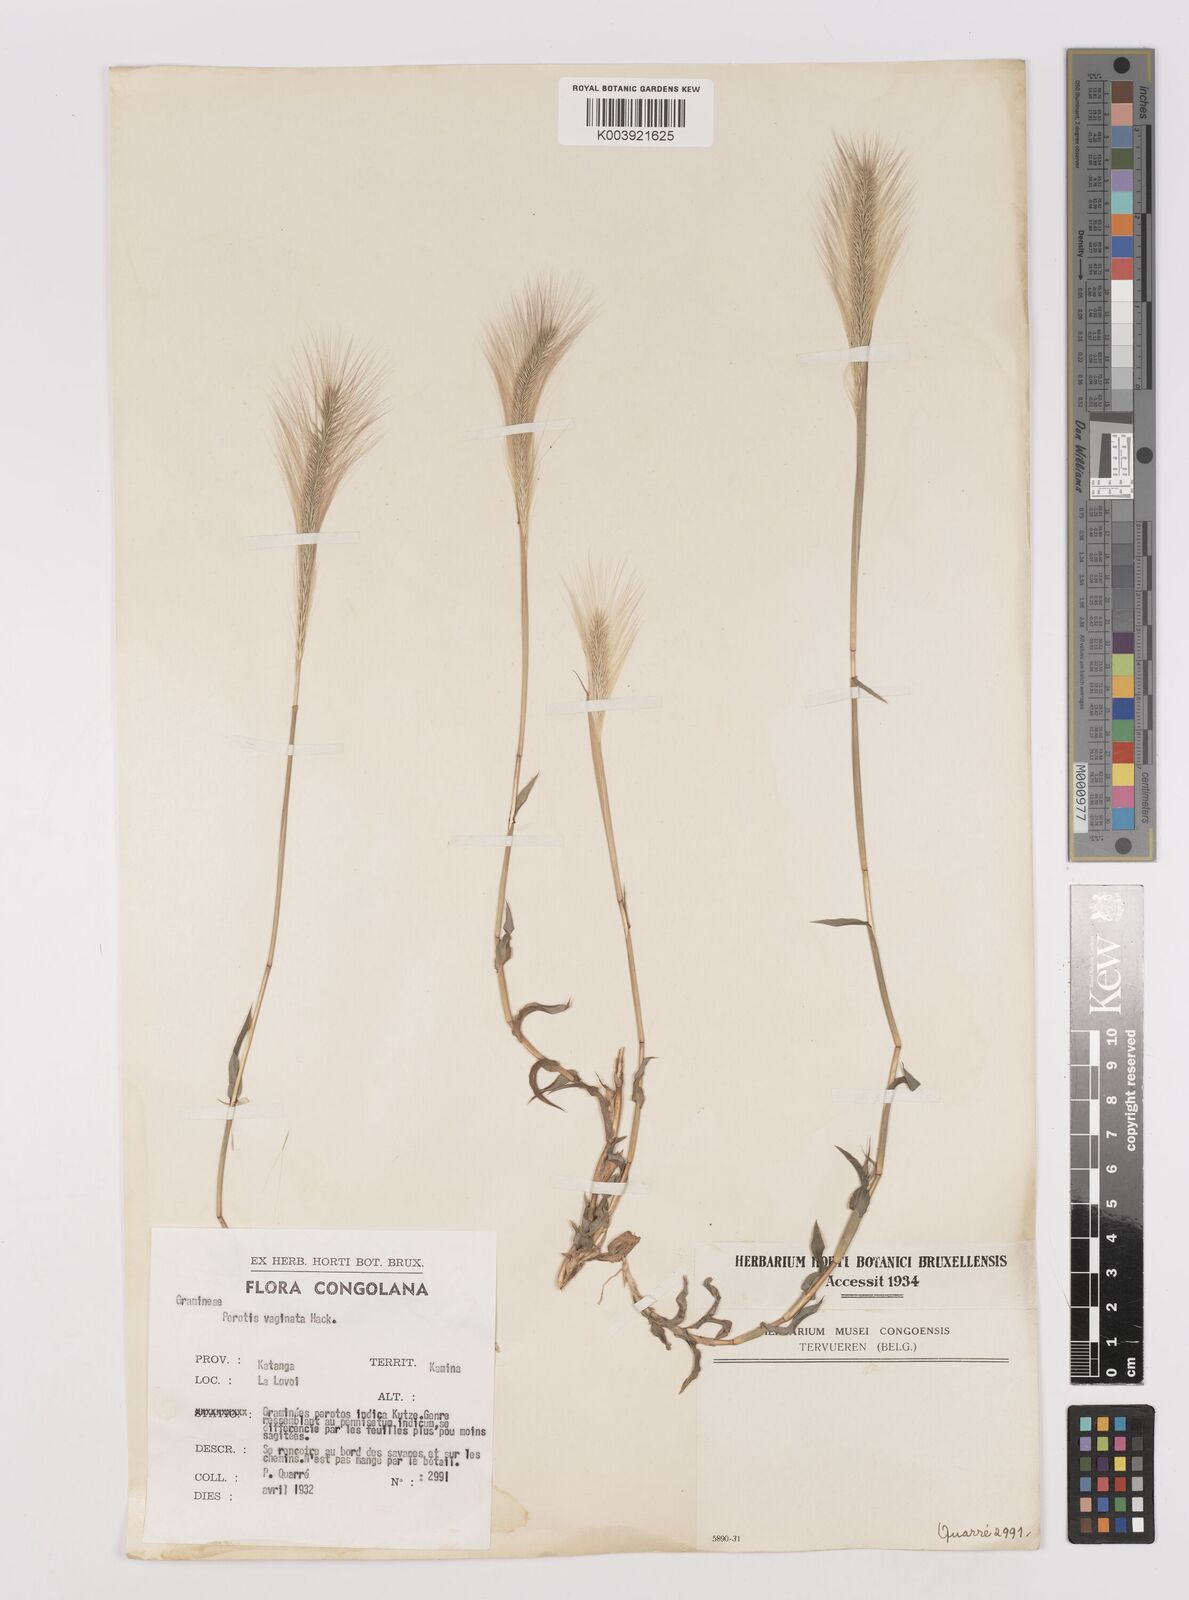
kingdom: Plantae
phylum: Tracheophyta
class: Liliopsida
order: Poales
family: Poaceae
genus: Perotis
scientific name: Perotis vaginata
